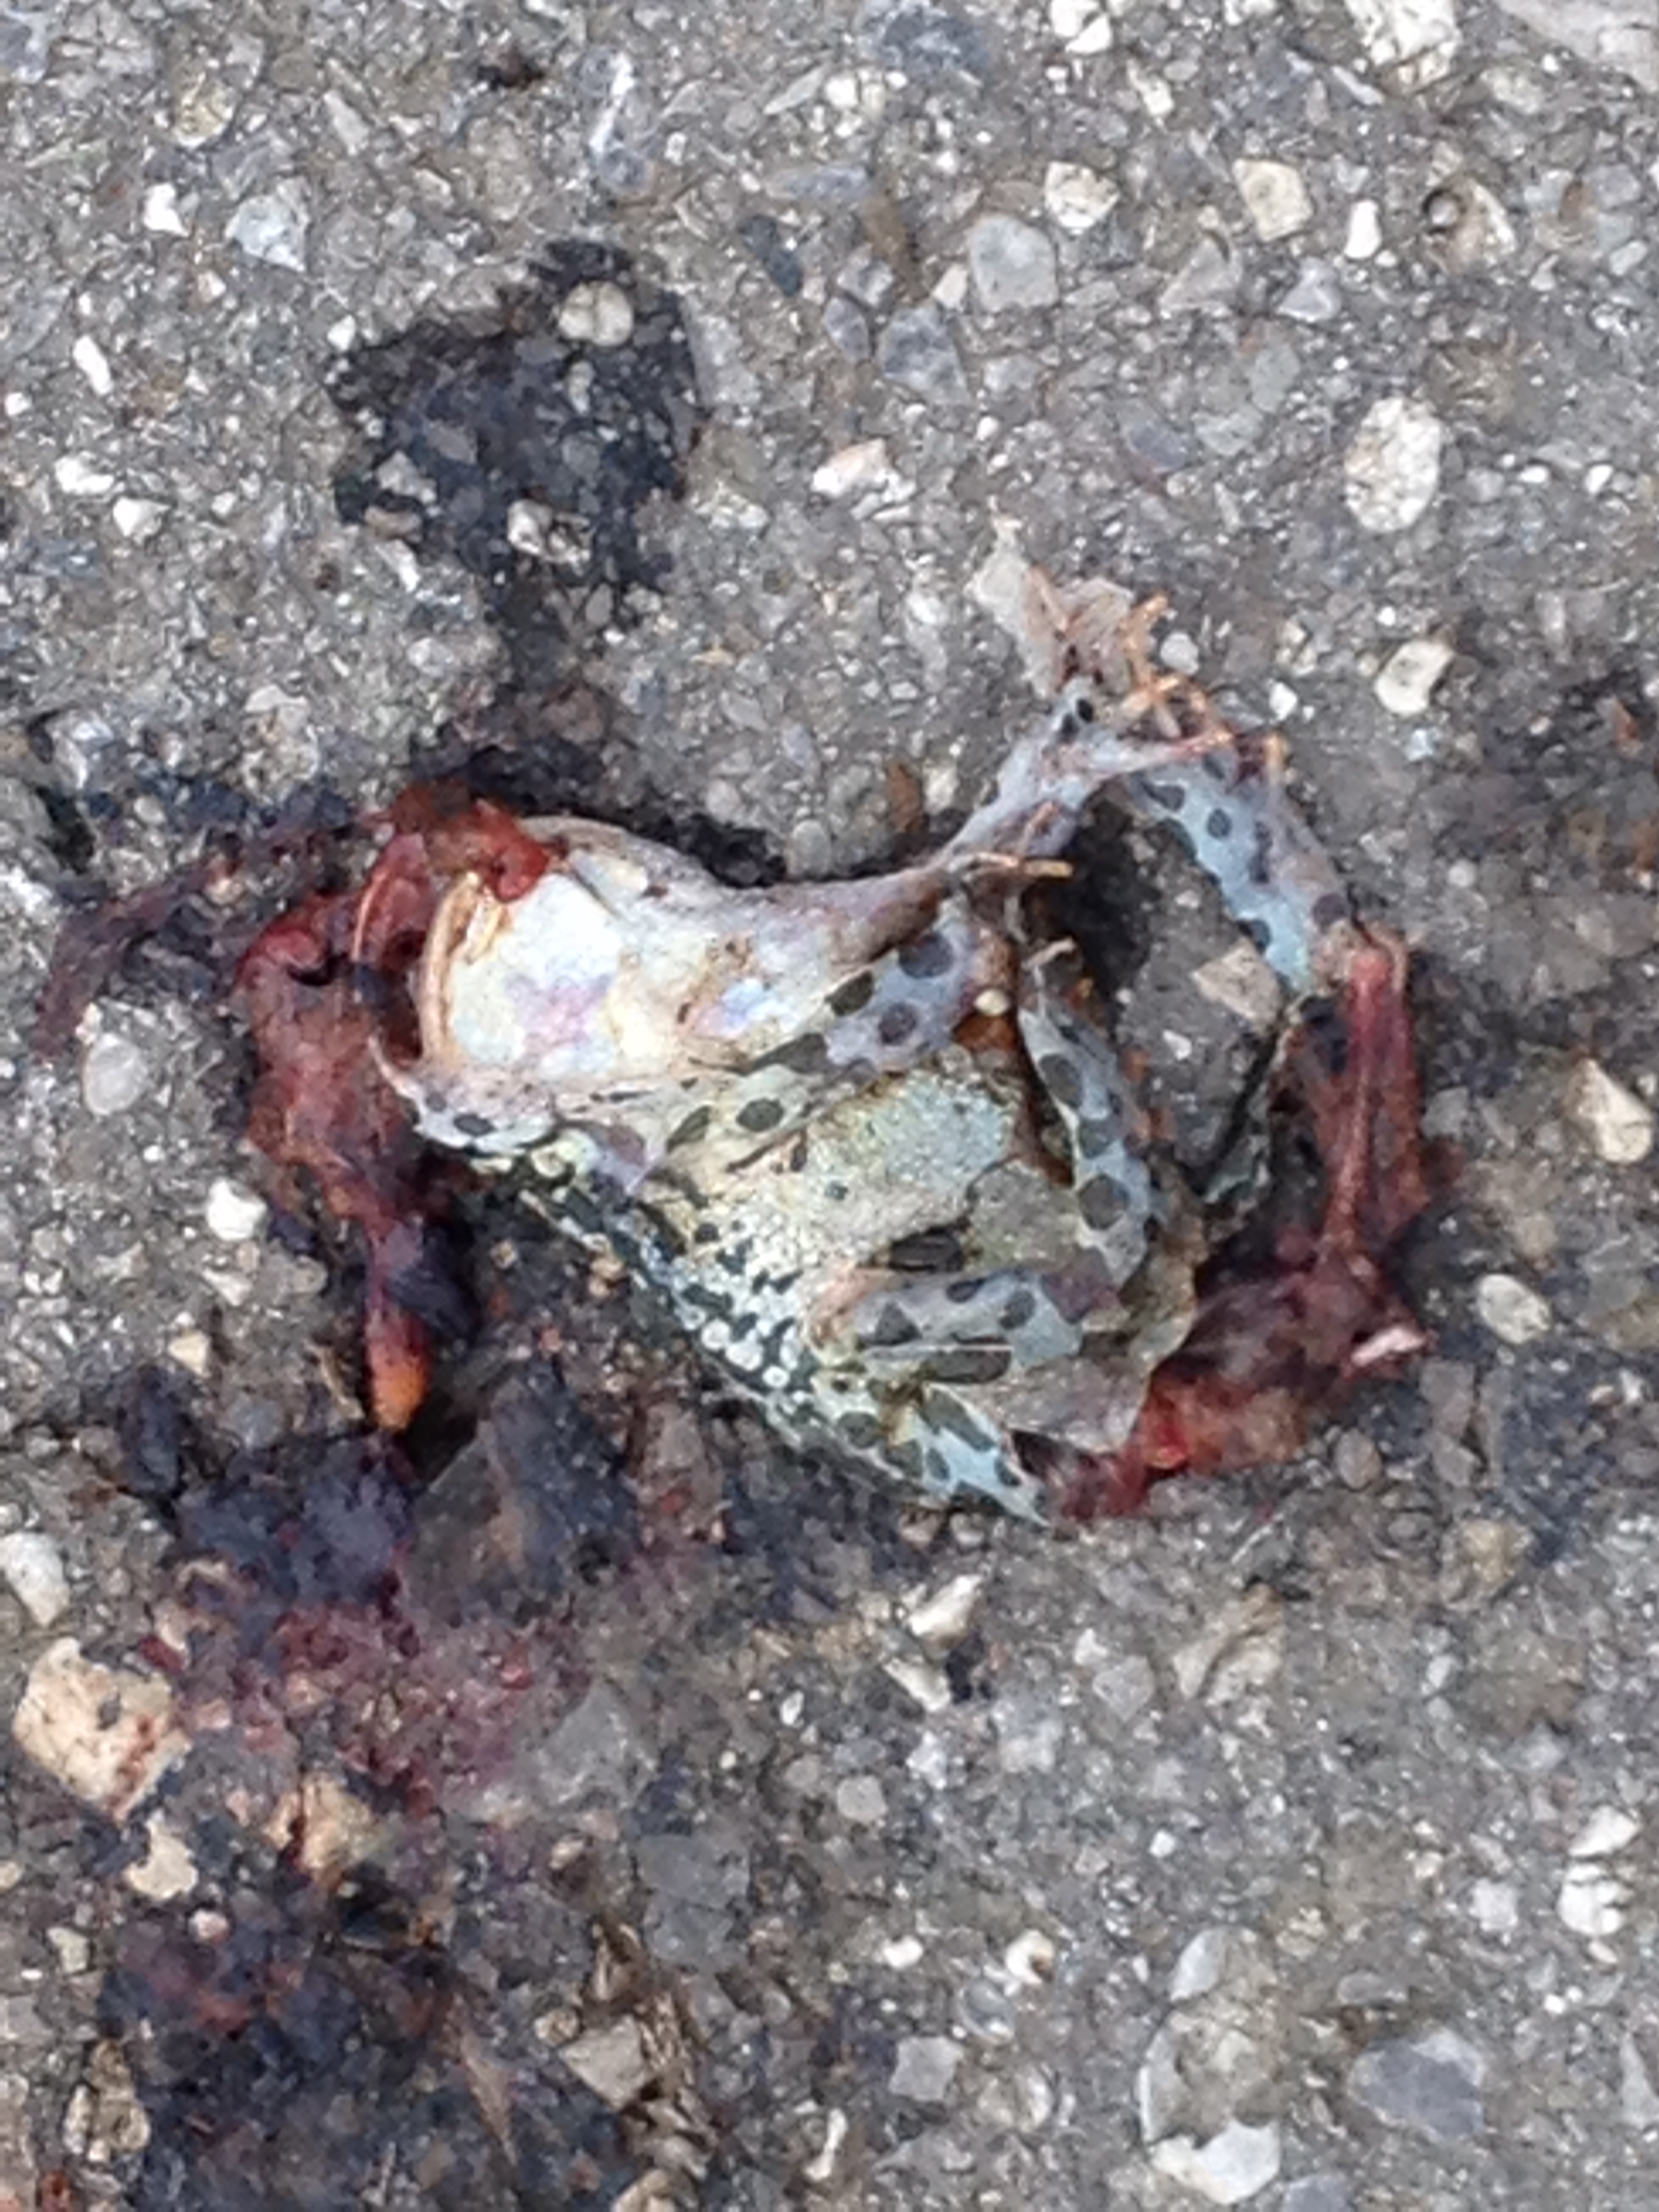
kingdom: Animalia
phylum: Chordata
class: Amphibia
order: Anura
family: Bufonidae
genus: Bufotes
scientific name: Bufotes viridis
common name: European green toad
